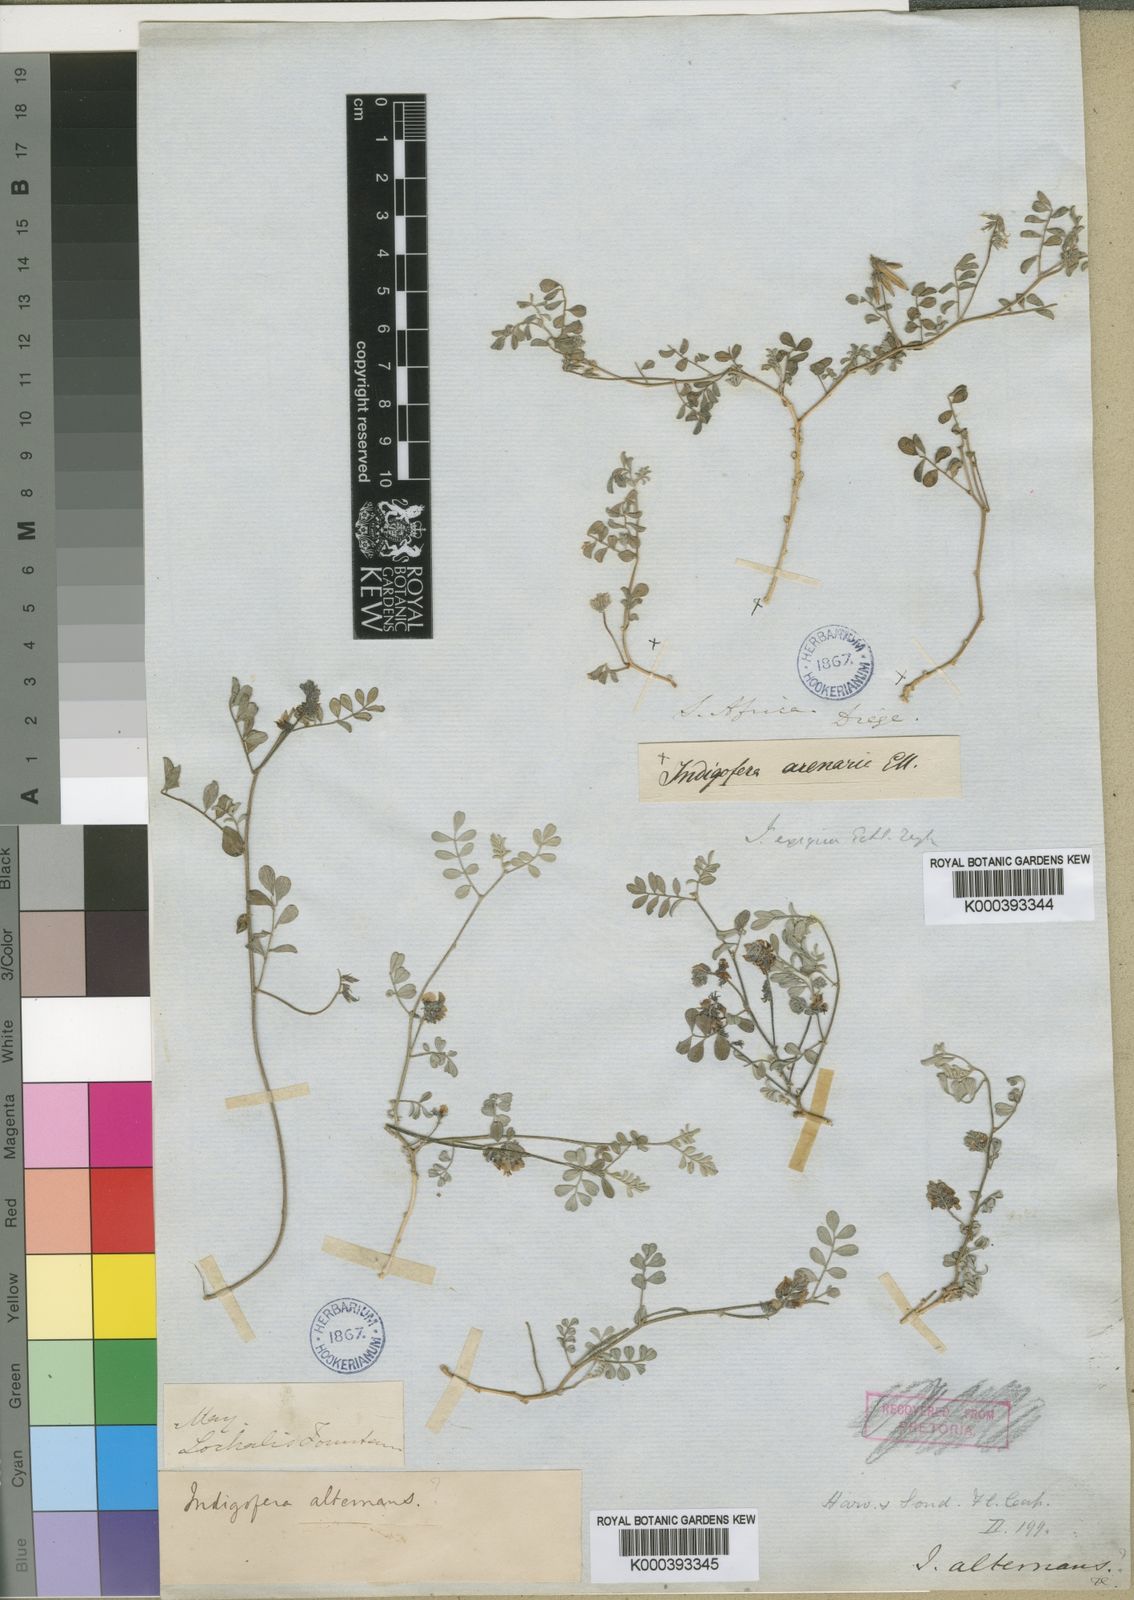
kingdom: Plantae
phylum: Tracheophyta
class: Magnoliopsida
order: Fabales
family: Fabaceae
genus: Indigofera
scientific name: Indigofera exigua
